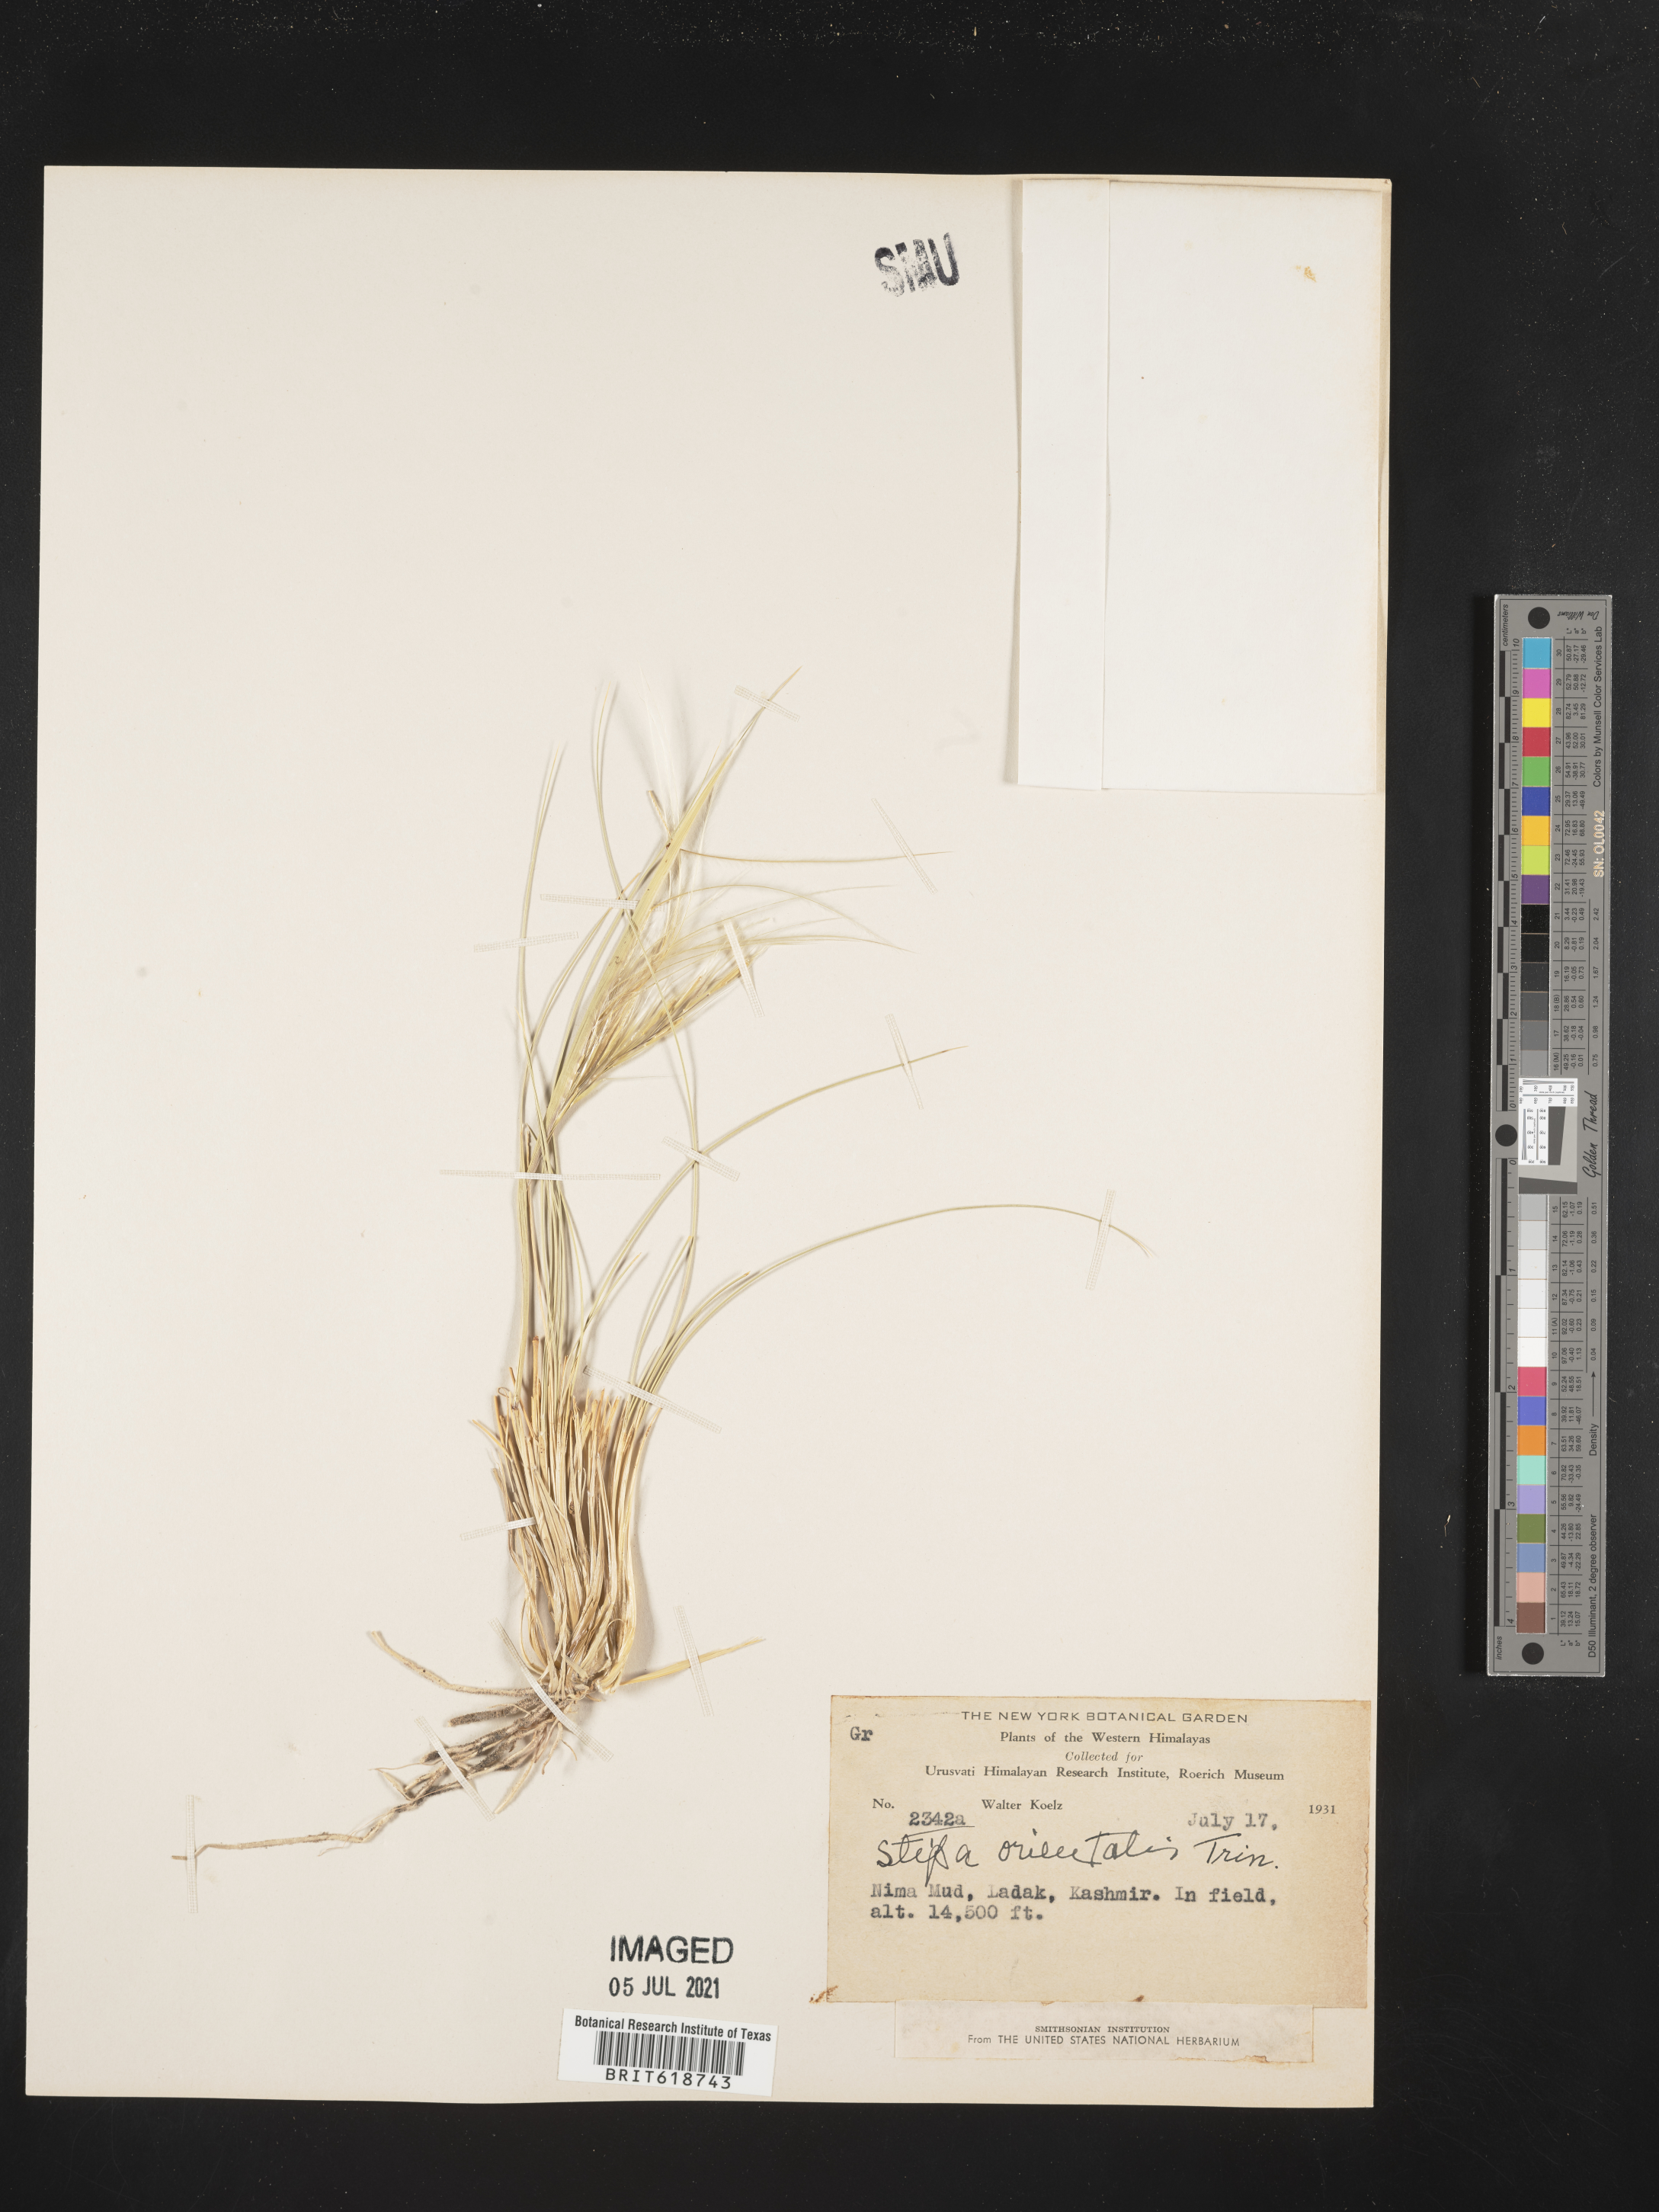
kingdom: Plantae
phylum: Tracheophyta
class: Liliopsida
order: Poales
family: Poaceae
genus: Stipa
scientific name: Stipa orientalis
